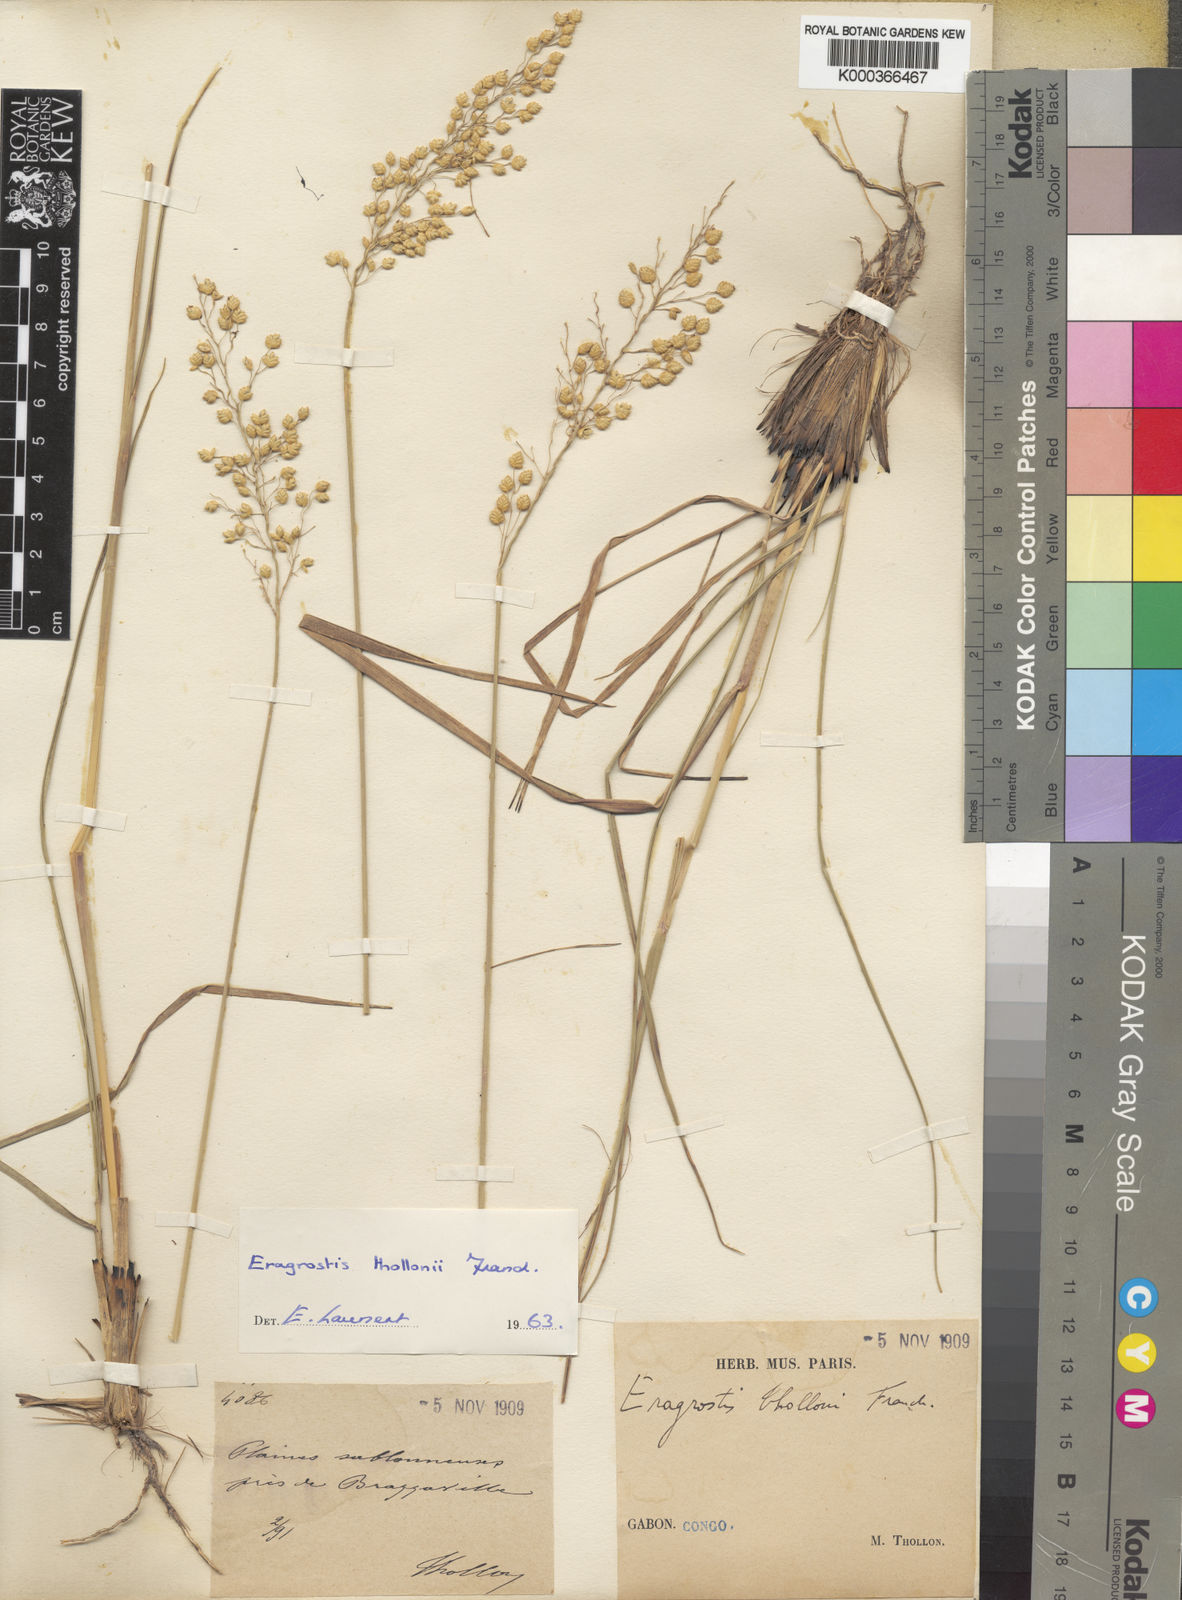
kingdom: Plantae
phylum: Tracheophyta
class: Liliopsida
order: Poales
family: Poaceae
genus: Eragrostis
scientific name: Eragrostis thollonii
